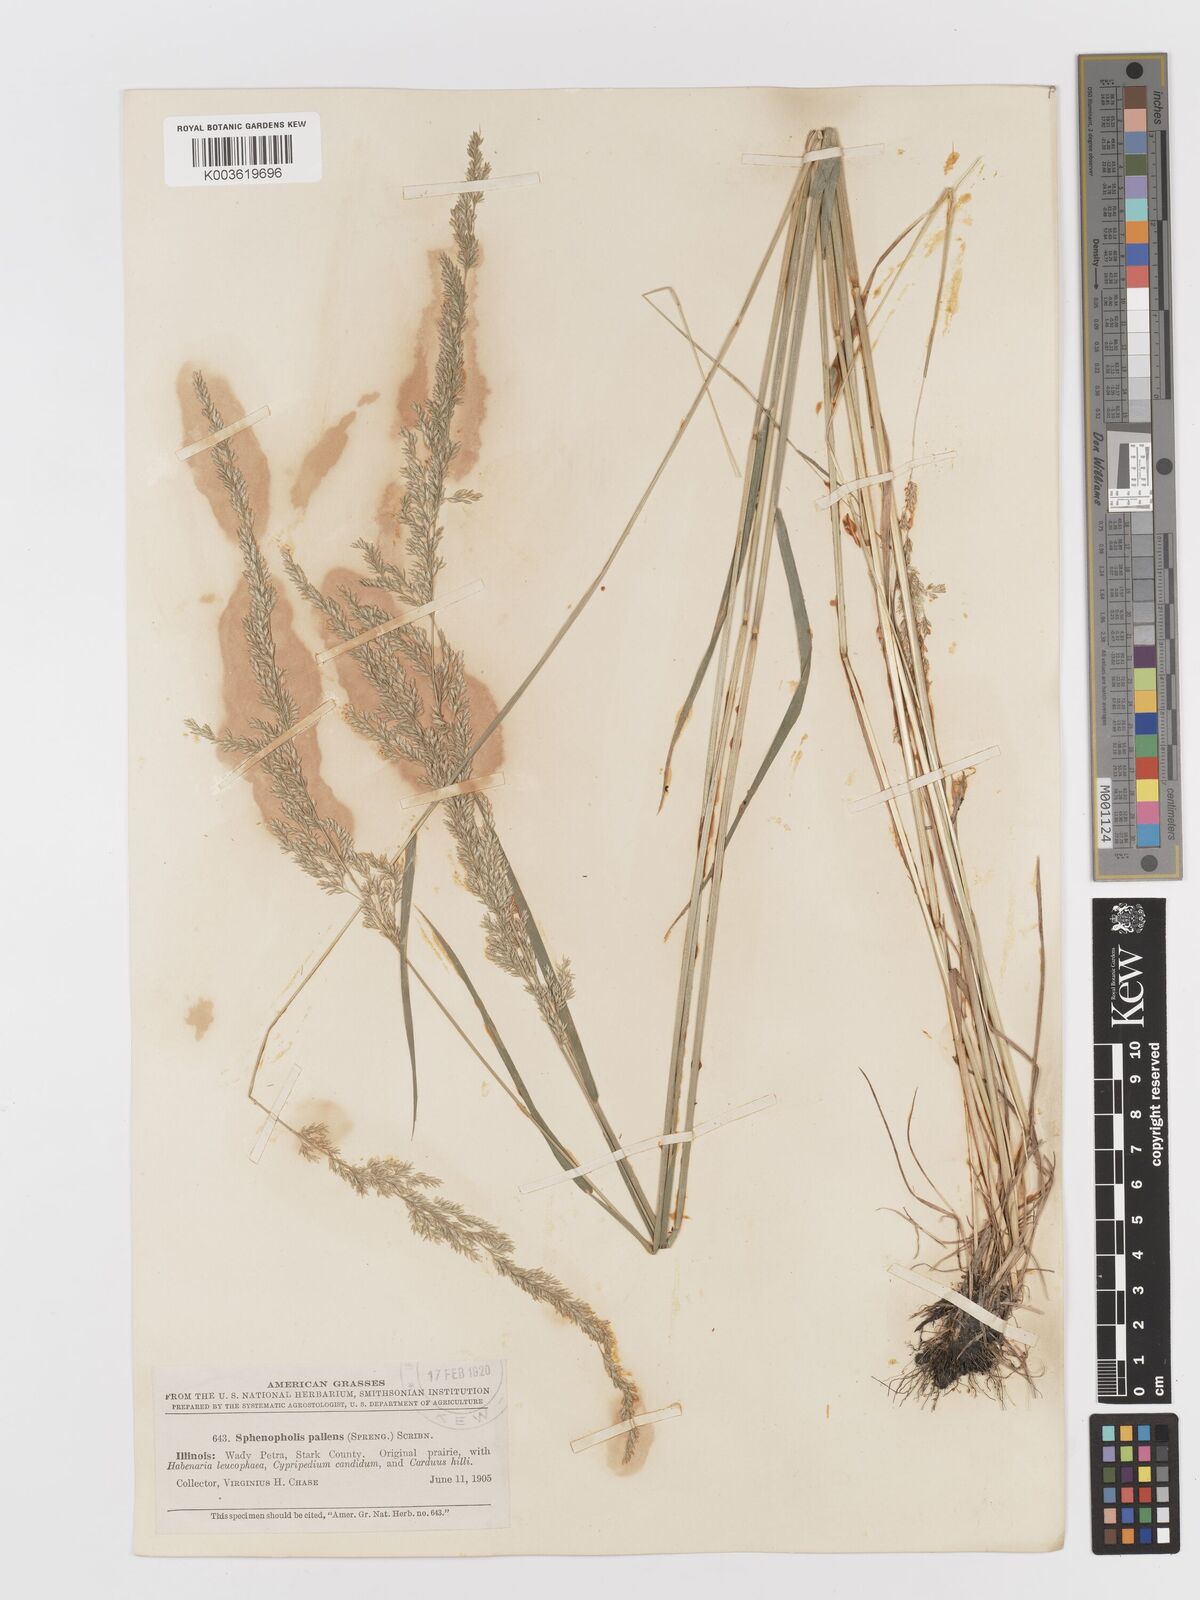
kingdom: Plantae
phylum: Tracheophyta
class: Liliopsida
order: Poales
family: Poaceae
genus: Sphenopholis
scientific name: Sphenopholis obtusata
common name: Prairie grass
